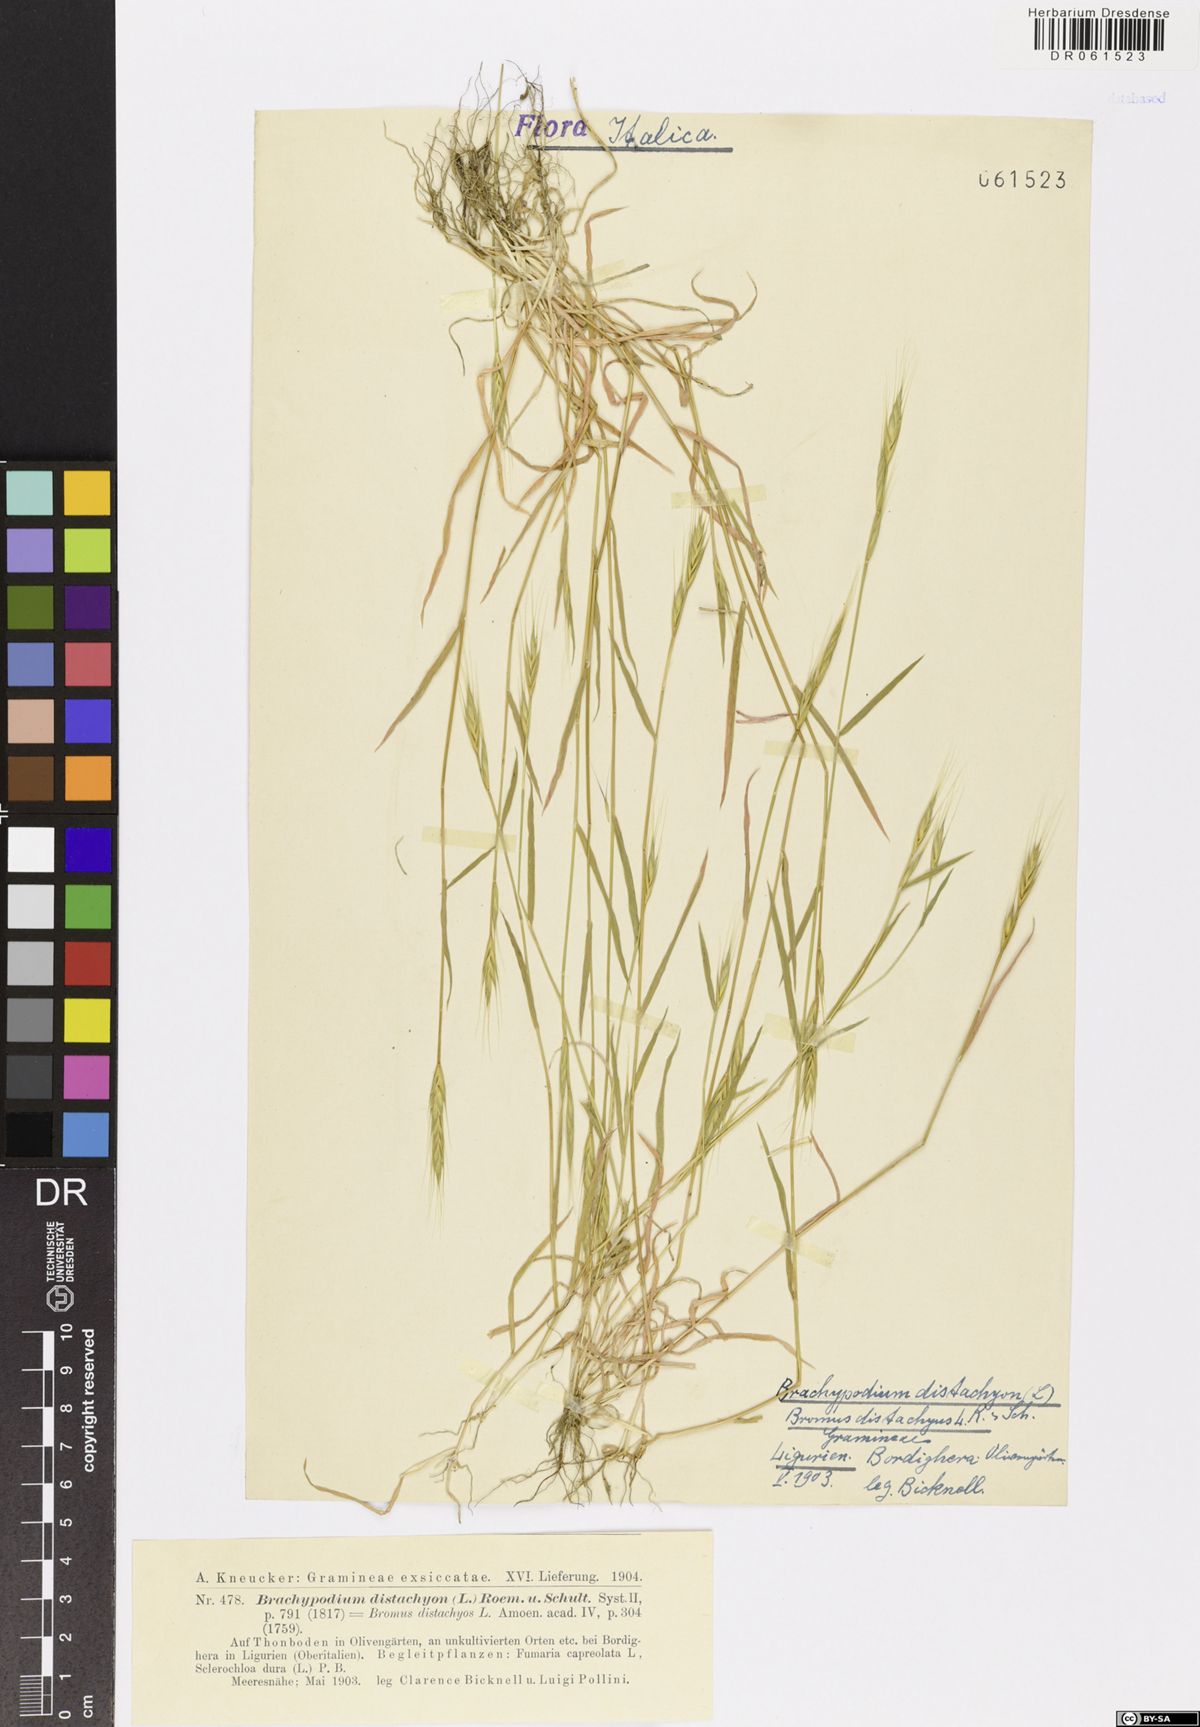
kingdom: Plantae
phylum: Tracheophyta
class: Liliopsida
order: Poales
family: Poaceae
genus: Brachypodium
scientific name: Brachypodium distachyon
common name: Stiff brome
